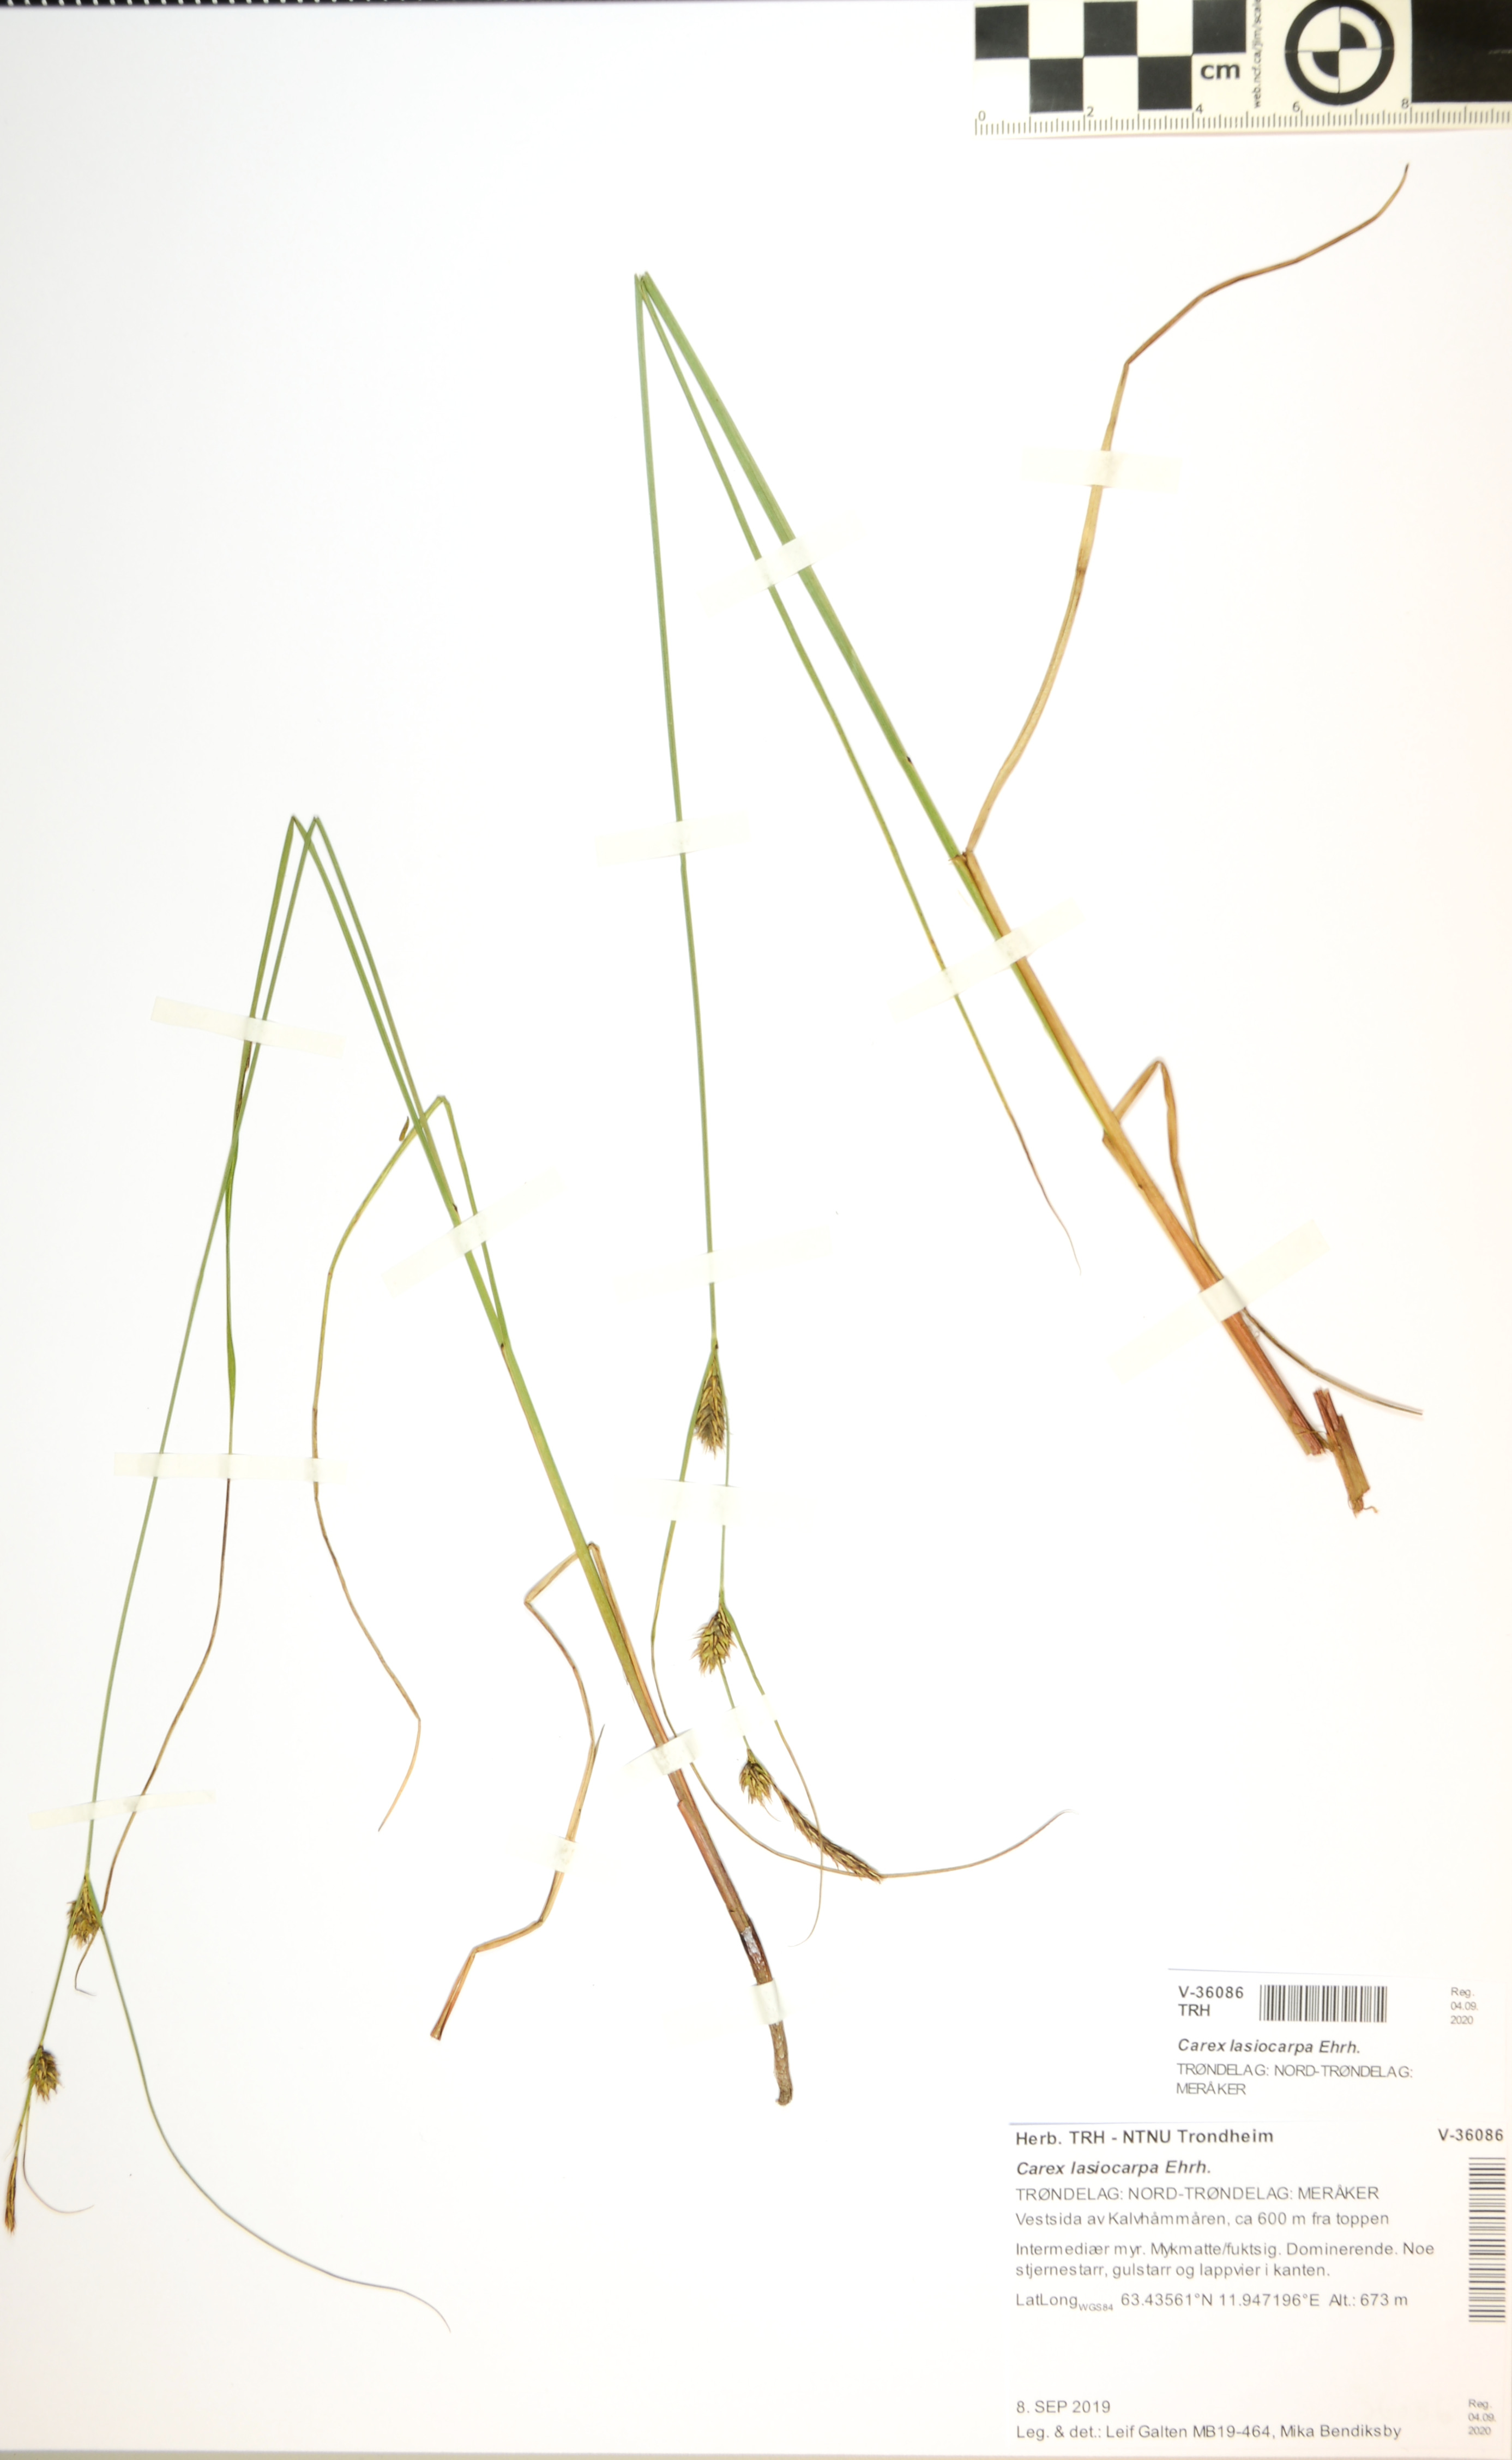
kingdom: Plantae
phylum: Tracheophyta
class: Liliopsida
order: Poales
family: Cyperaceae
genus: Carex
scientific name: Carex lasiocarpa
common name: Slender sedge
